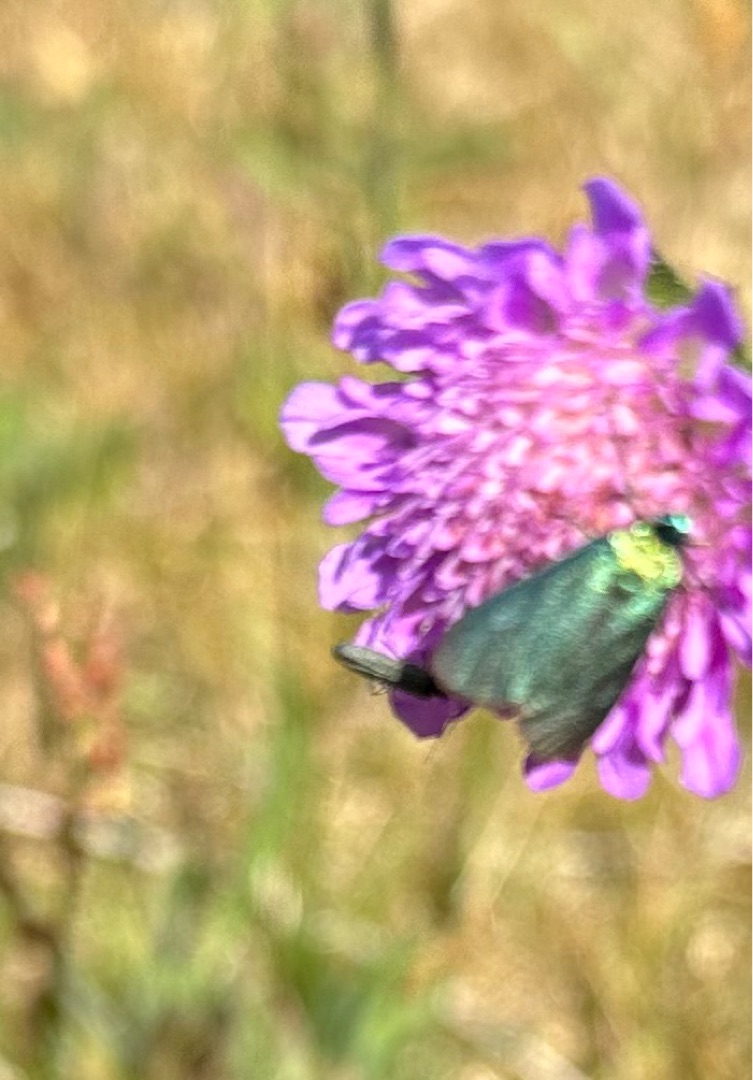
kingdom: Animalia
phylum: Arthropoda
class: Insecta
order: Lepidoptera
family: Zygaenidae
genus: Adscita
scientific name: Adscita statices
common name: Metalvinge
